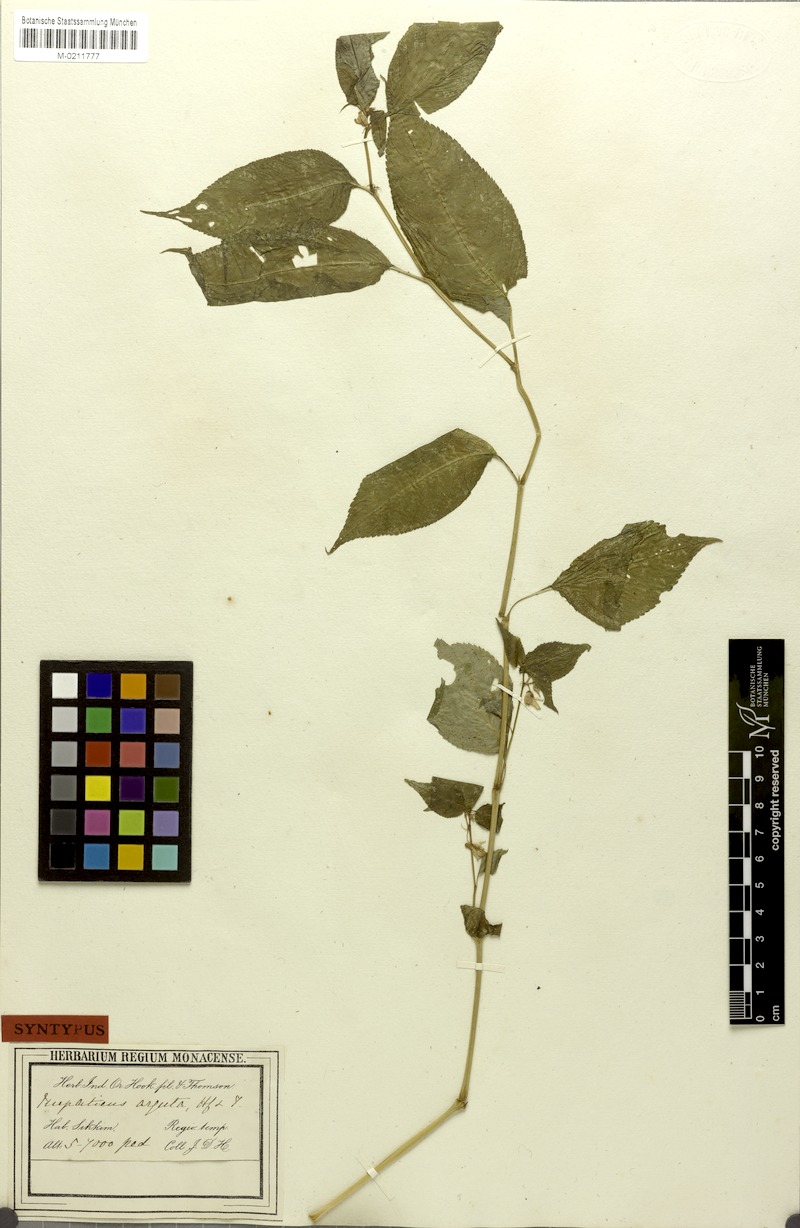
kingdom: Plantae
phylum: Tracheophyta
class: Magnoliopsida
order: Ericales
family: Balsaminaceae
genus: Impatiens
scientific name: Impatiens arguta
